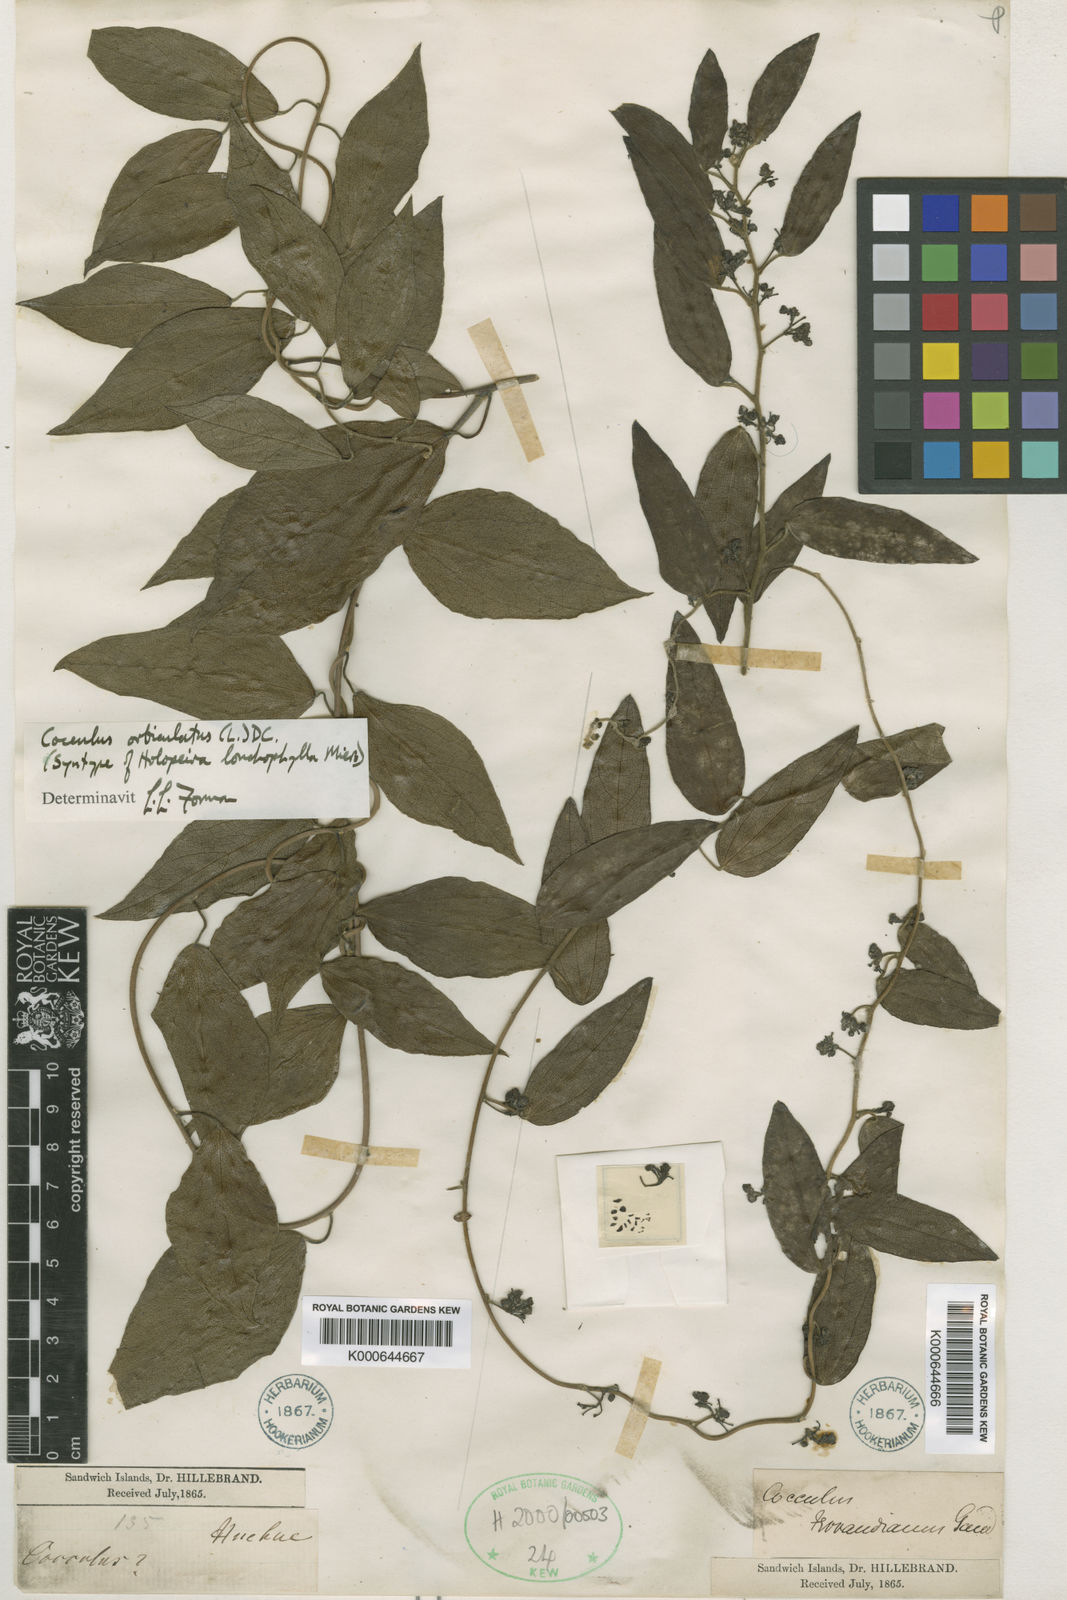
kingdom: Plantae
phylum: Tracheophyta
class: Magnoliopsida
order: Ranunculales
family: Menispermaceae
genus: Cocculus
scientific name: Cocculus orbiculatus
